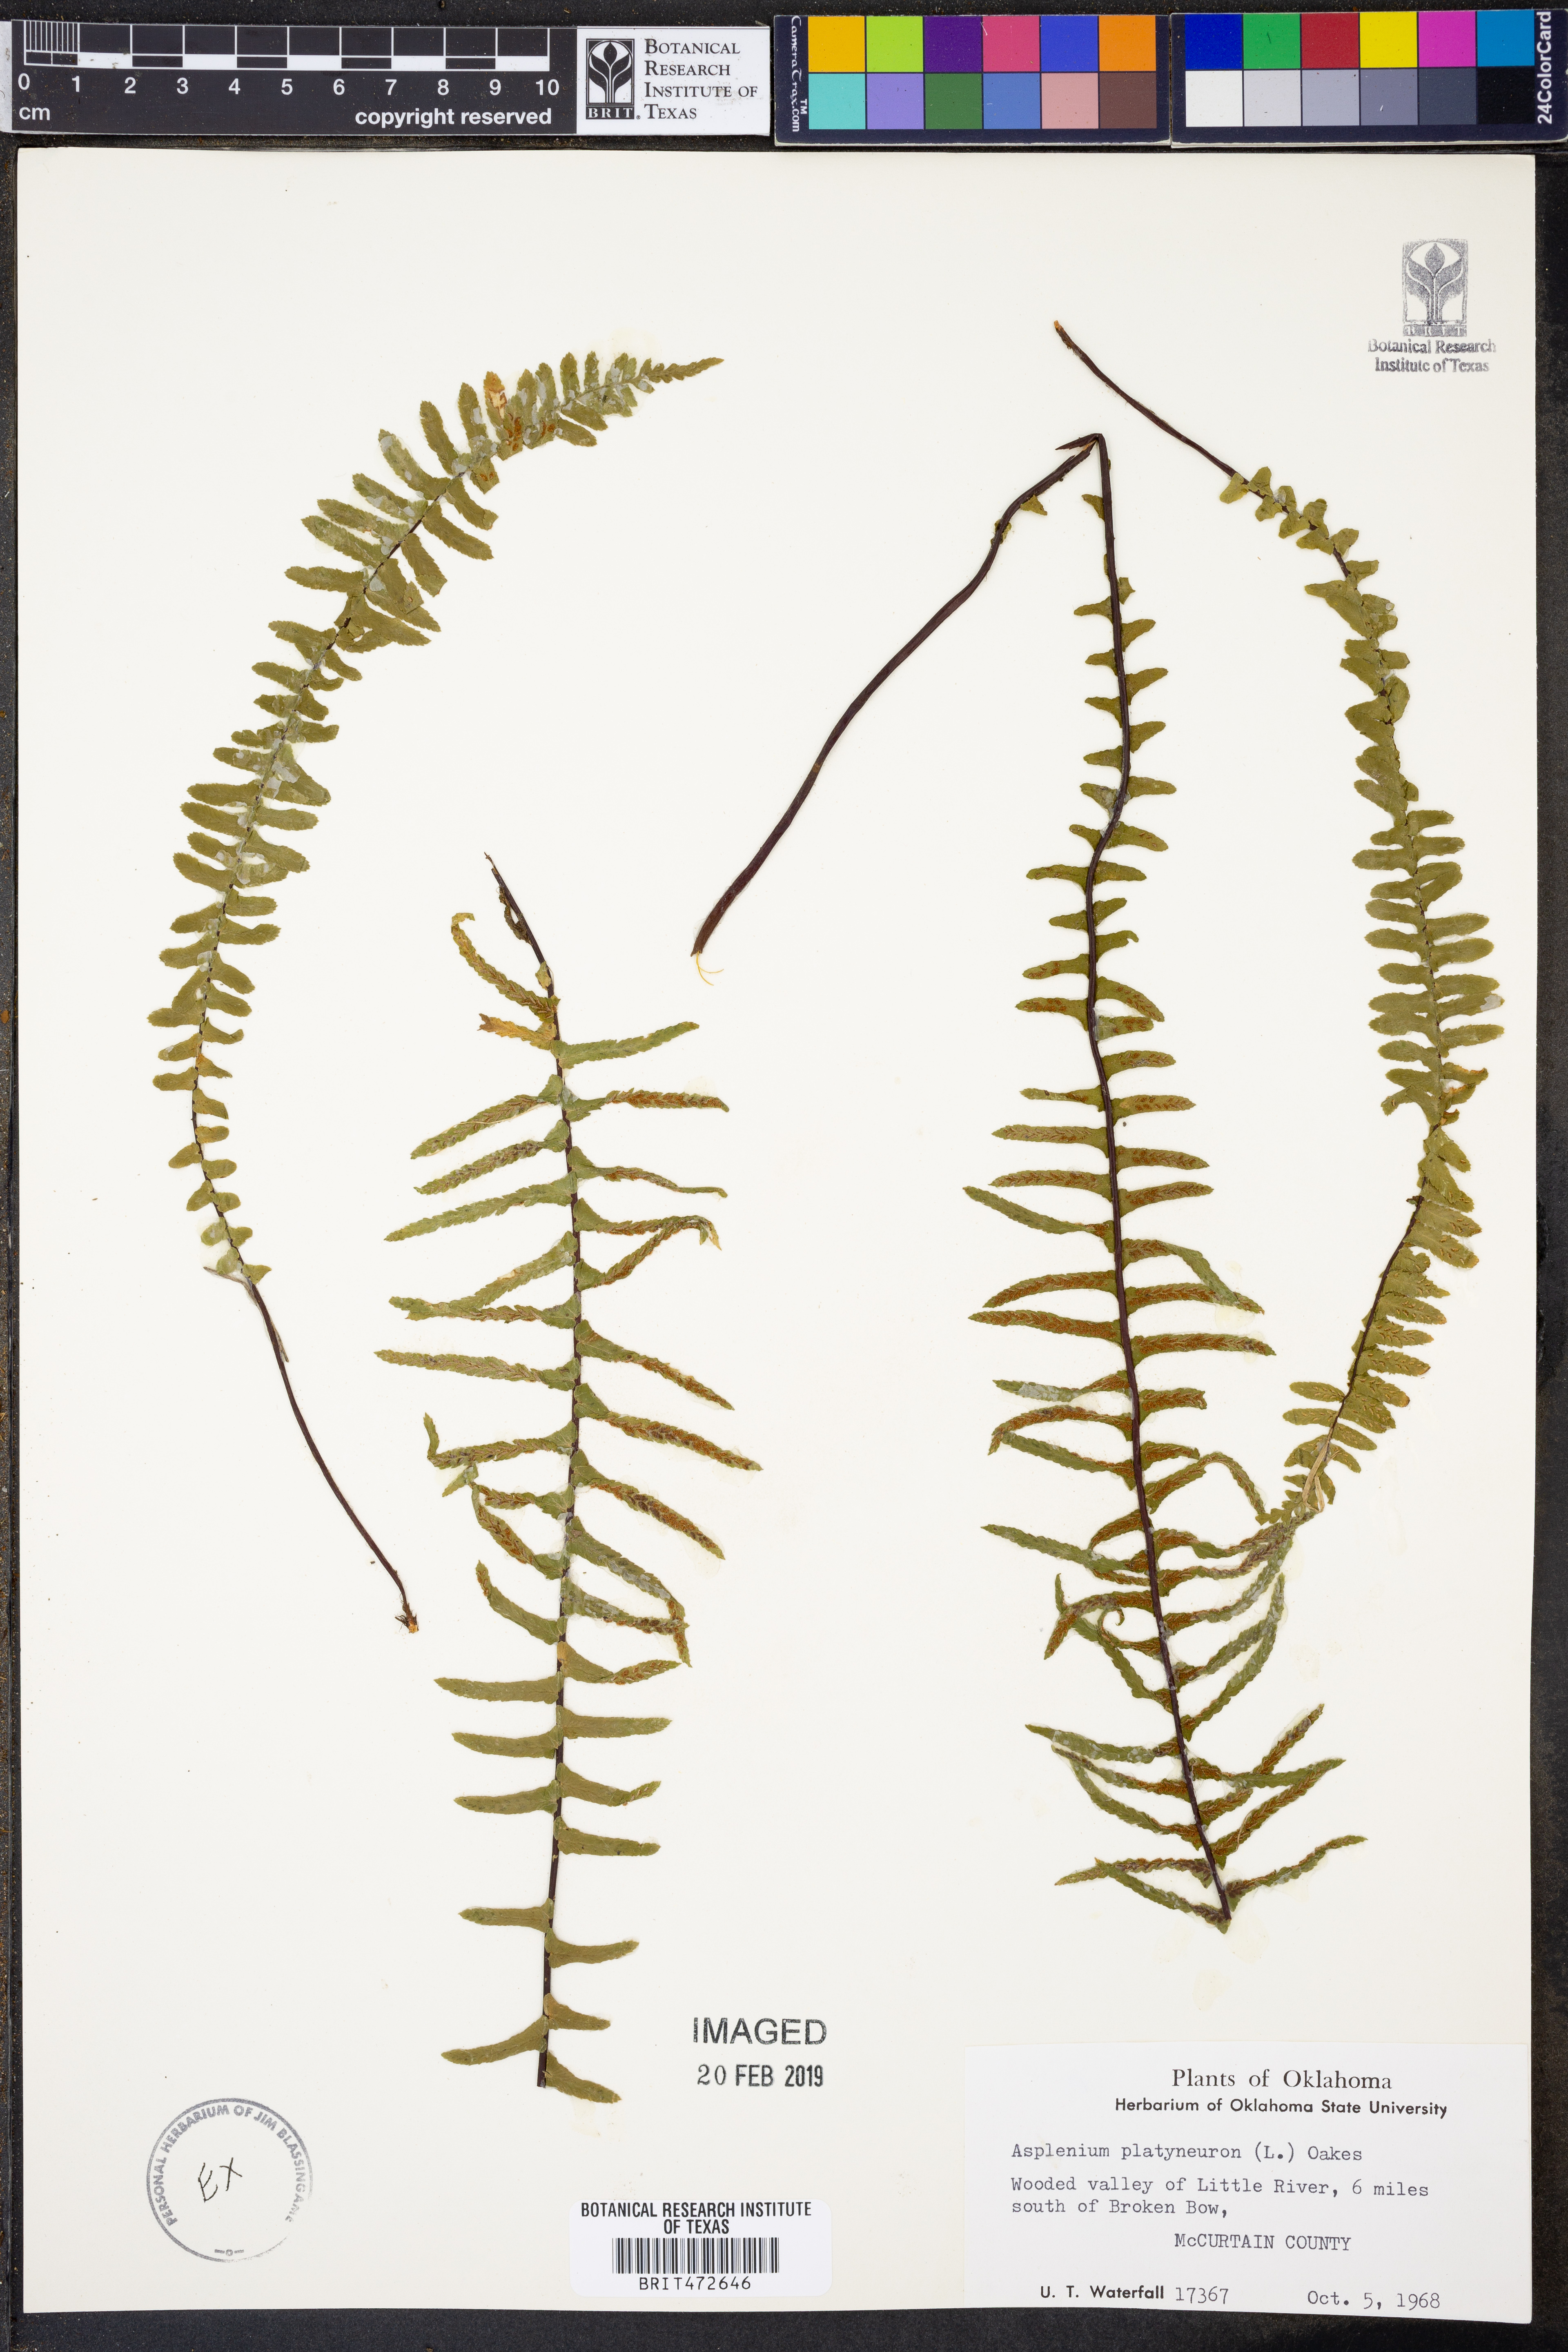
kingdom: Plantae
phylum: Tracheophyta
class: Polypodiopsida
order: Polypodiales
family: Aspleniaceae
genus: Asplenium
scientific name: Asplenium platyneuron
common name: Ebony spleenwort
